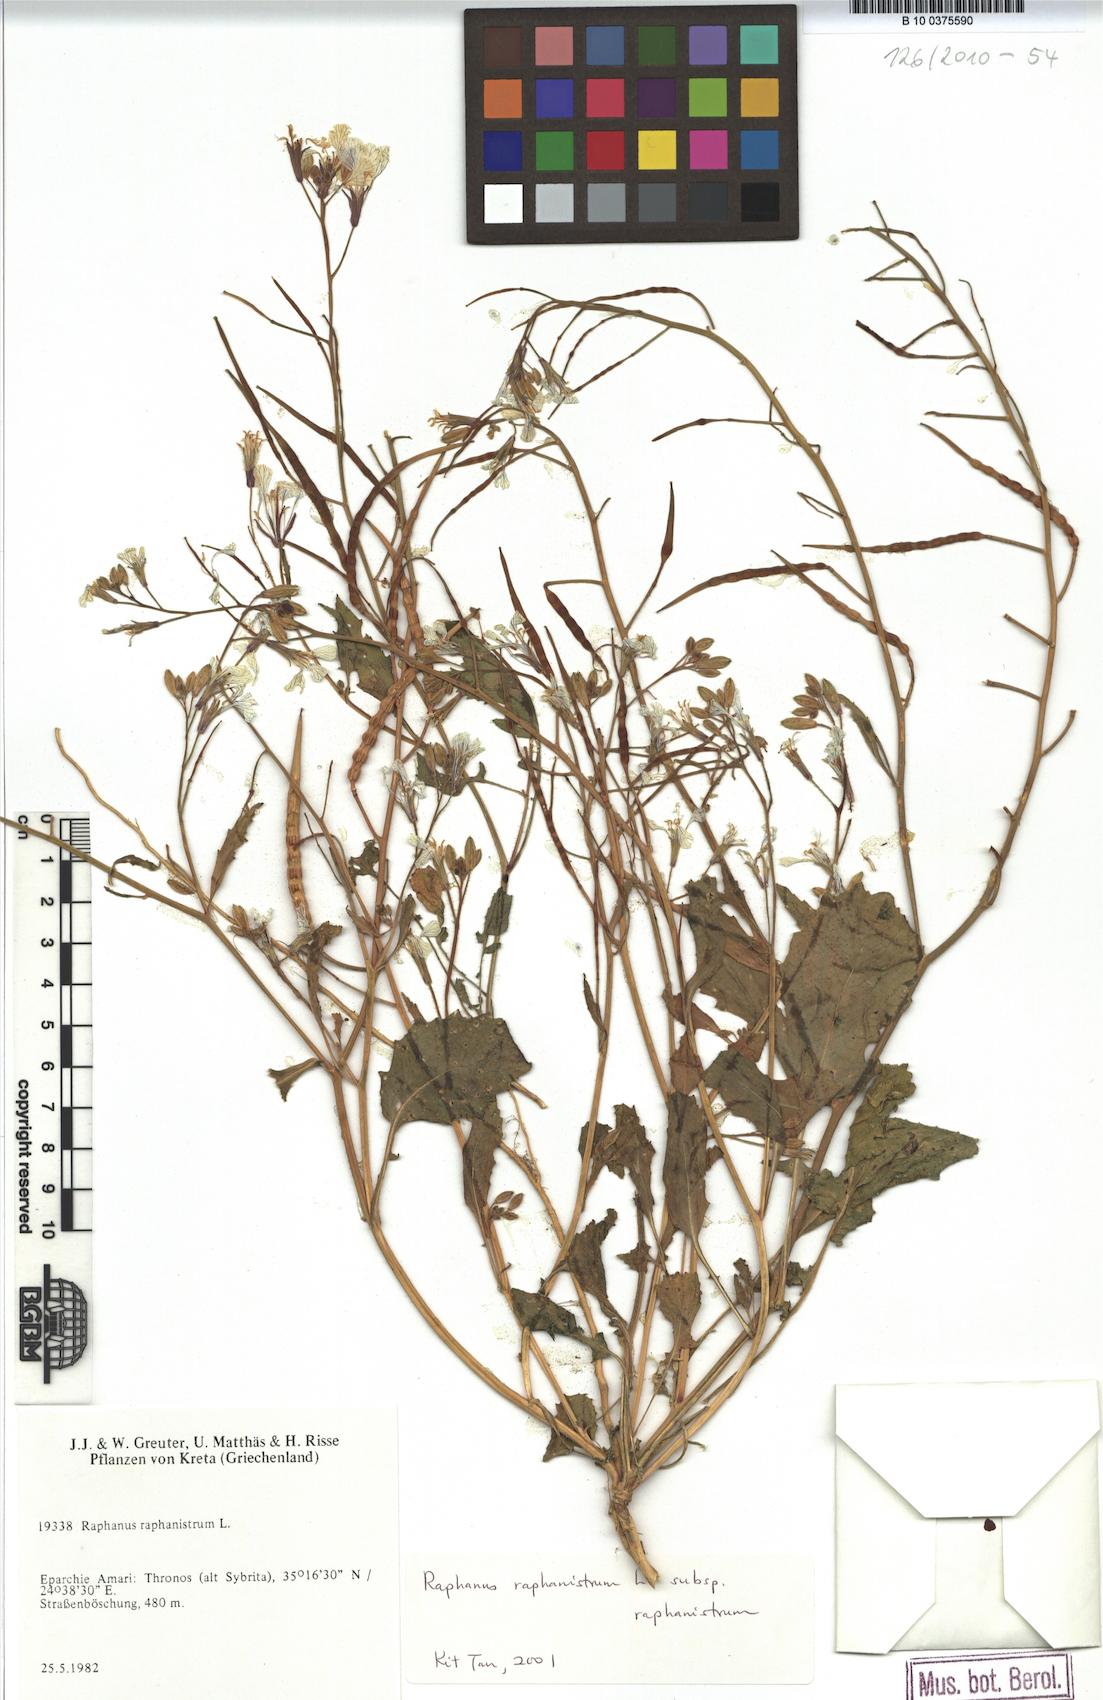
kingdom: Plantae
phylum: Tracheophyta
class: Magnoliopsida
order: Brassicales
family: Brassicaceae
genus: Raphanus
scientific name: Raphanus raphanistrum
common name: Wild radish
